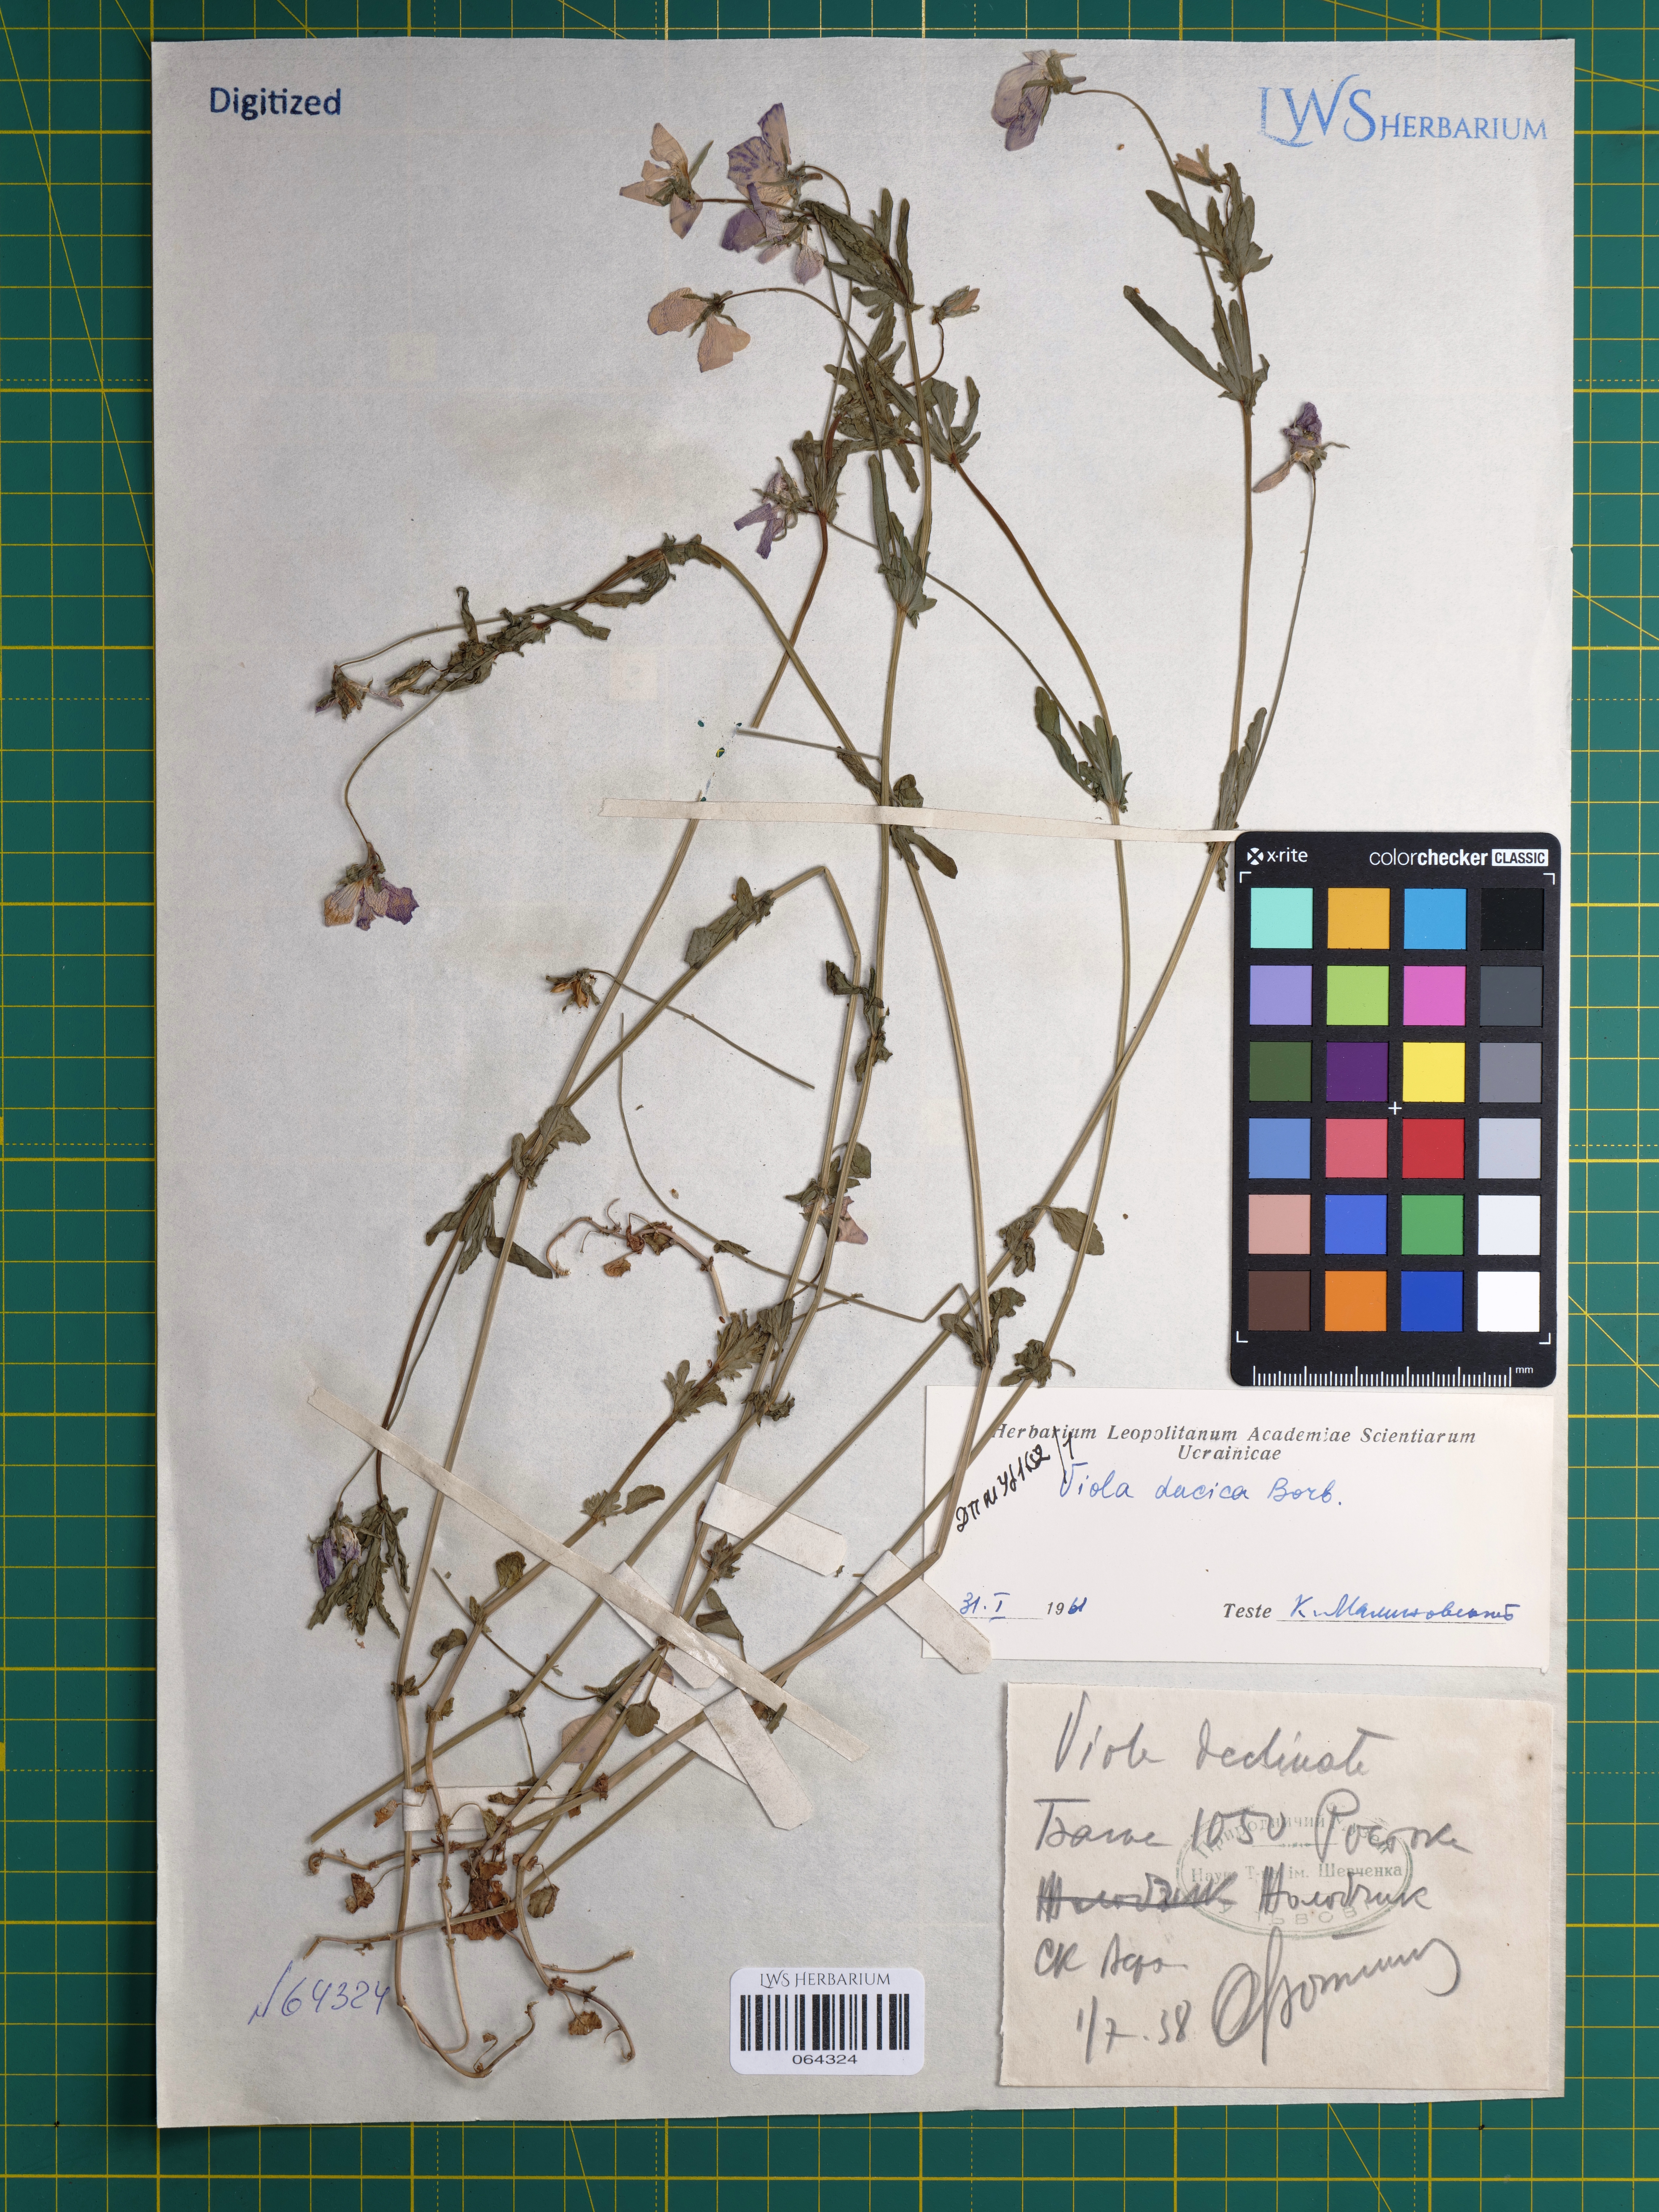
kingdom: Plantae
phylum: Tracheophyta
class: Magnoliopsida
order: Malpighiales
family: Violaceae
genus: Viola
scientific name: Viola dacica
